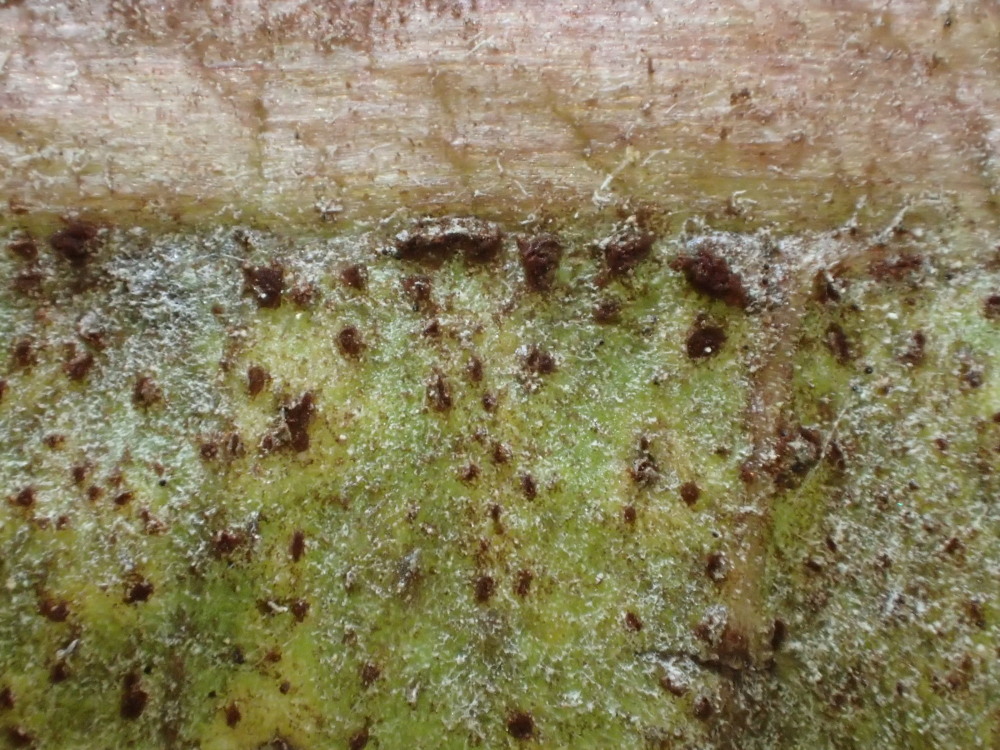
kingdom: Fungi
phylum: Basidiomycota
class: Pucciniomycetes
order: Pucciniales
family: Pucciniaceae
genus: Puccinia
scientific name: Puccinia hieracii
